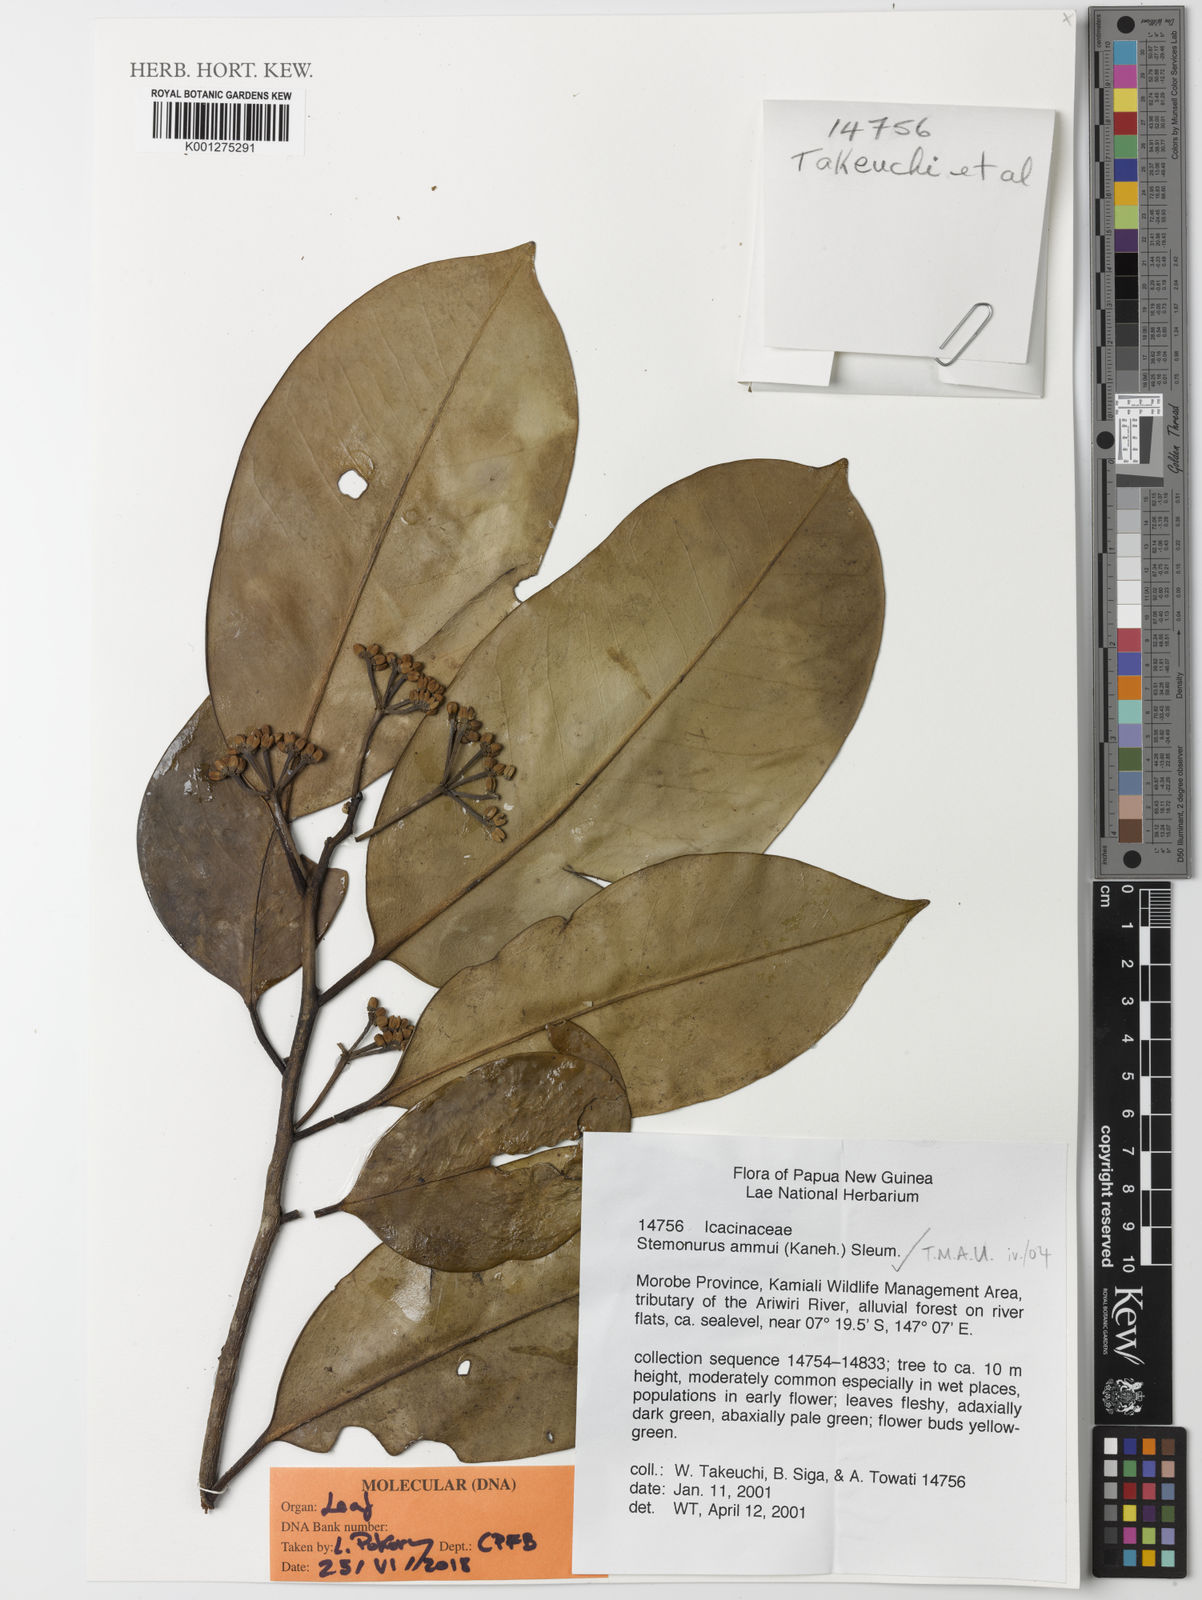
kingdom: Plantae
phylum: Tracheophyta
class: Magnoliopsida
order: Cardiopteridales
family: Stemonuraceae
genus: Stemonurus
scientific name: Stemonurus ammui
